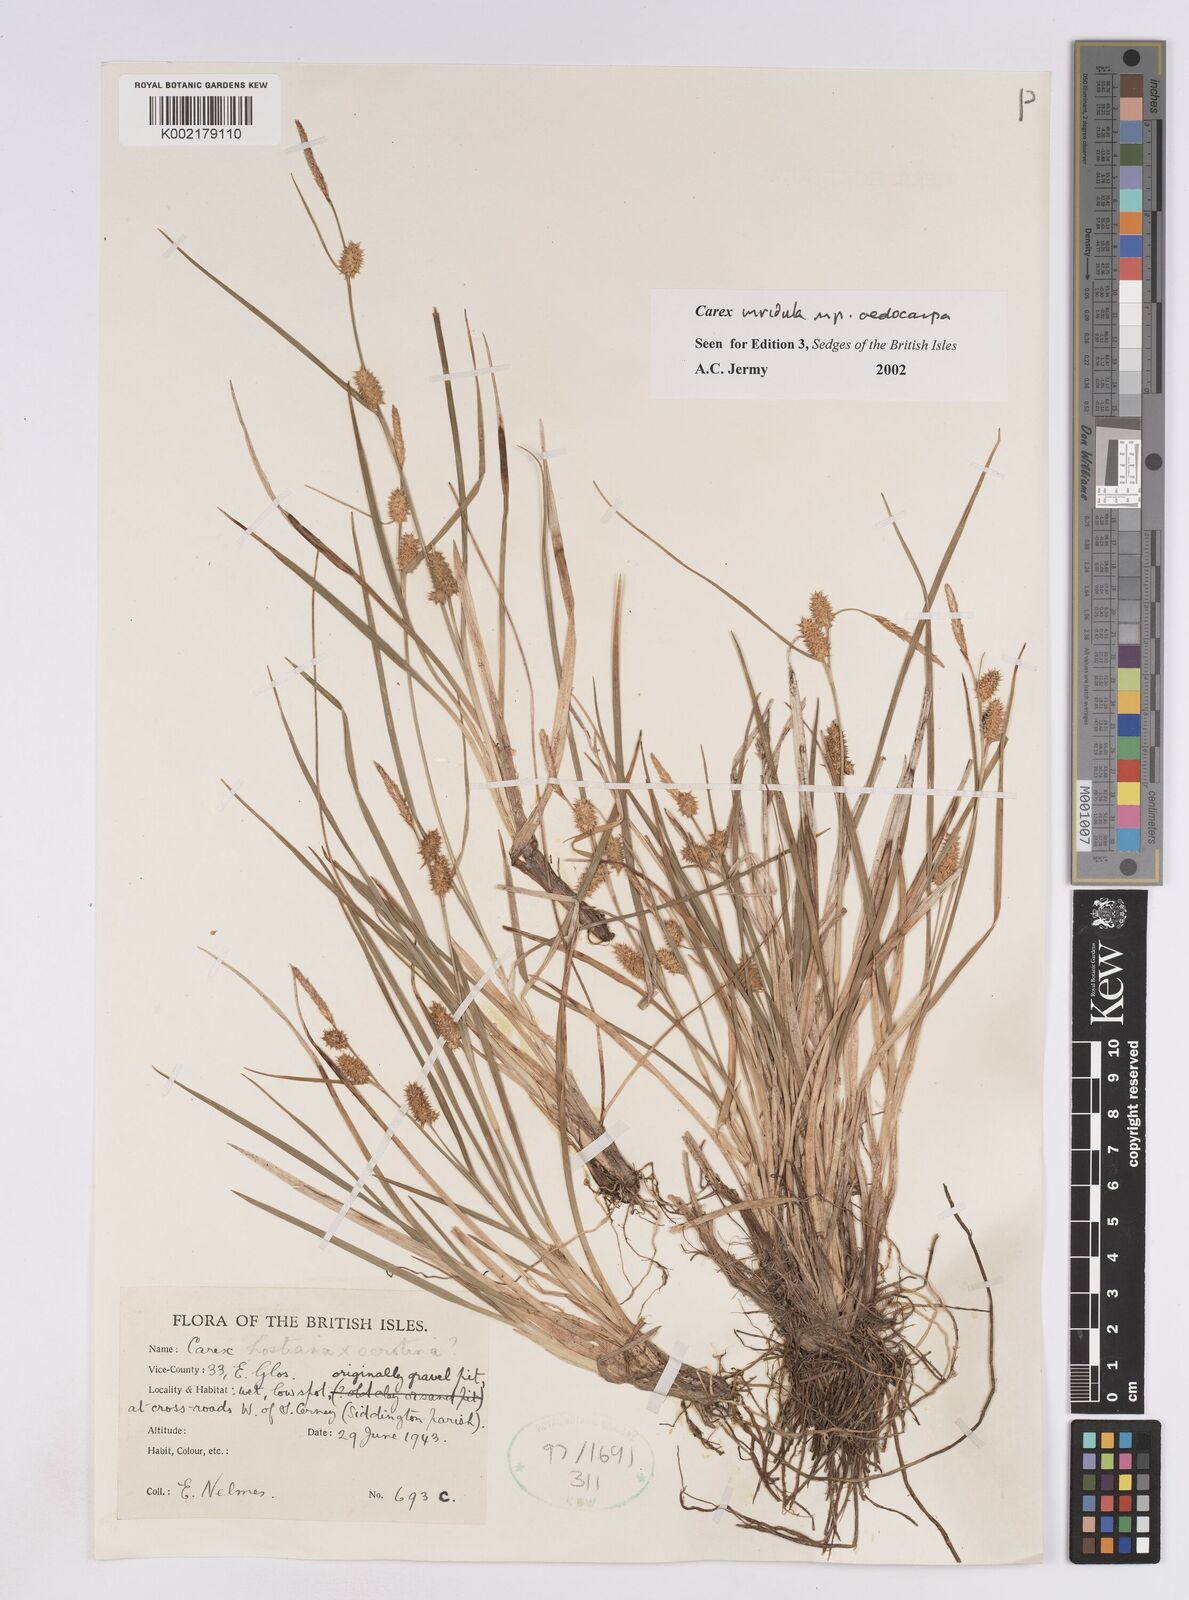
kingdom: Plantae
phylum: Tracheophyta
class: Liliopsida
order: Poales
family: Cyperaceae
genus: Carex
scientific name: Carex demissa
